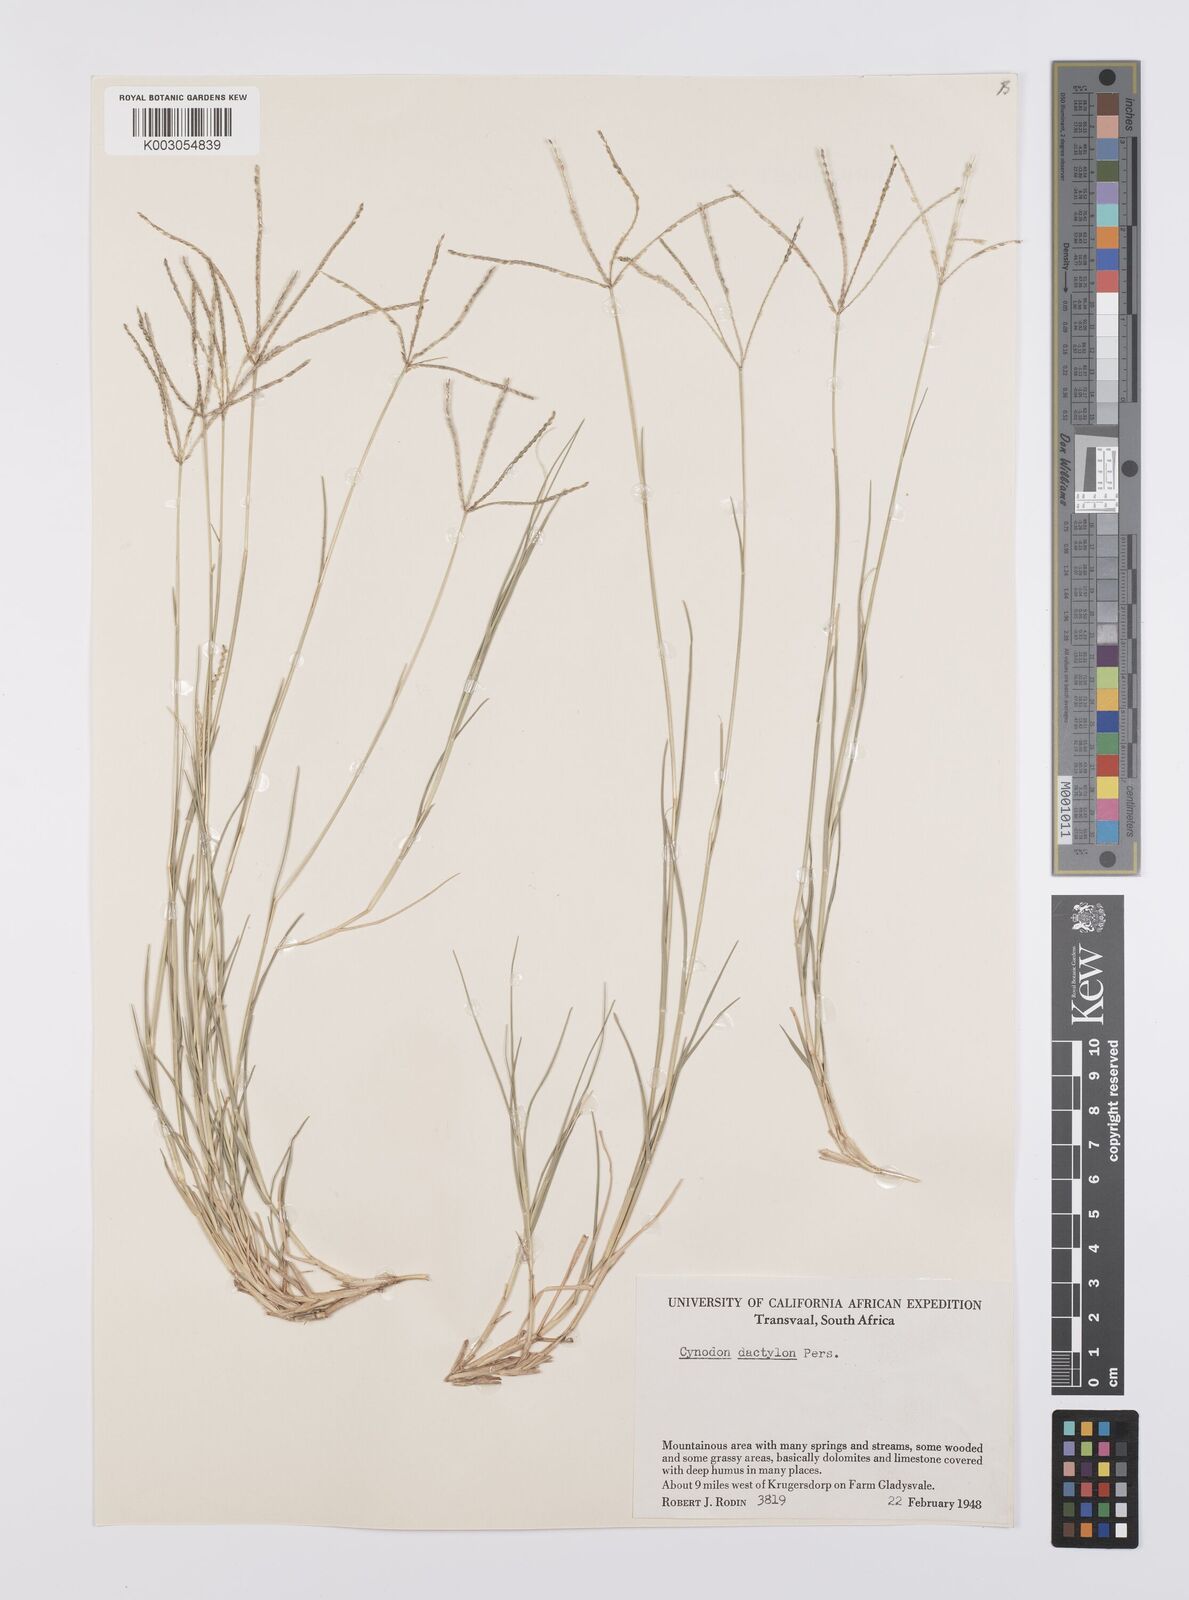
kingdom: Plantae
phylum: Tracheophyta
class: Liliopsida
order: Poales
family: Poaceae
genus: Cynodon
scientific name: Cynodon dactylon
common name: Bermuda grass
